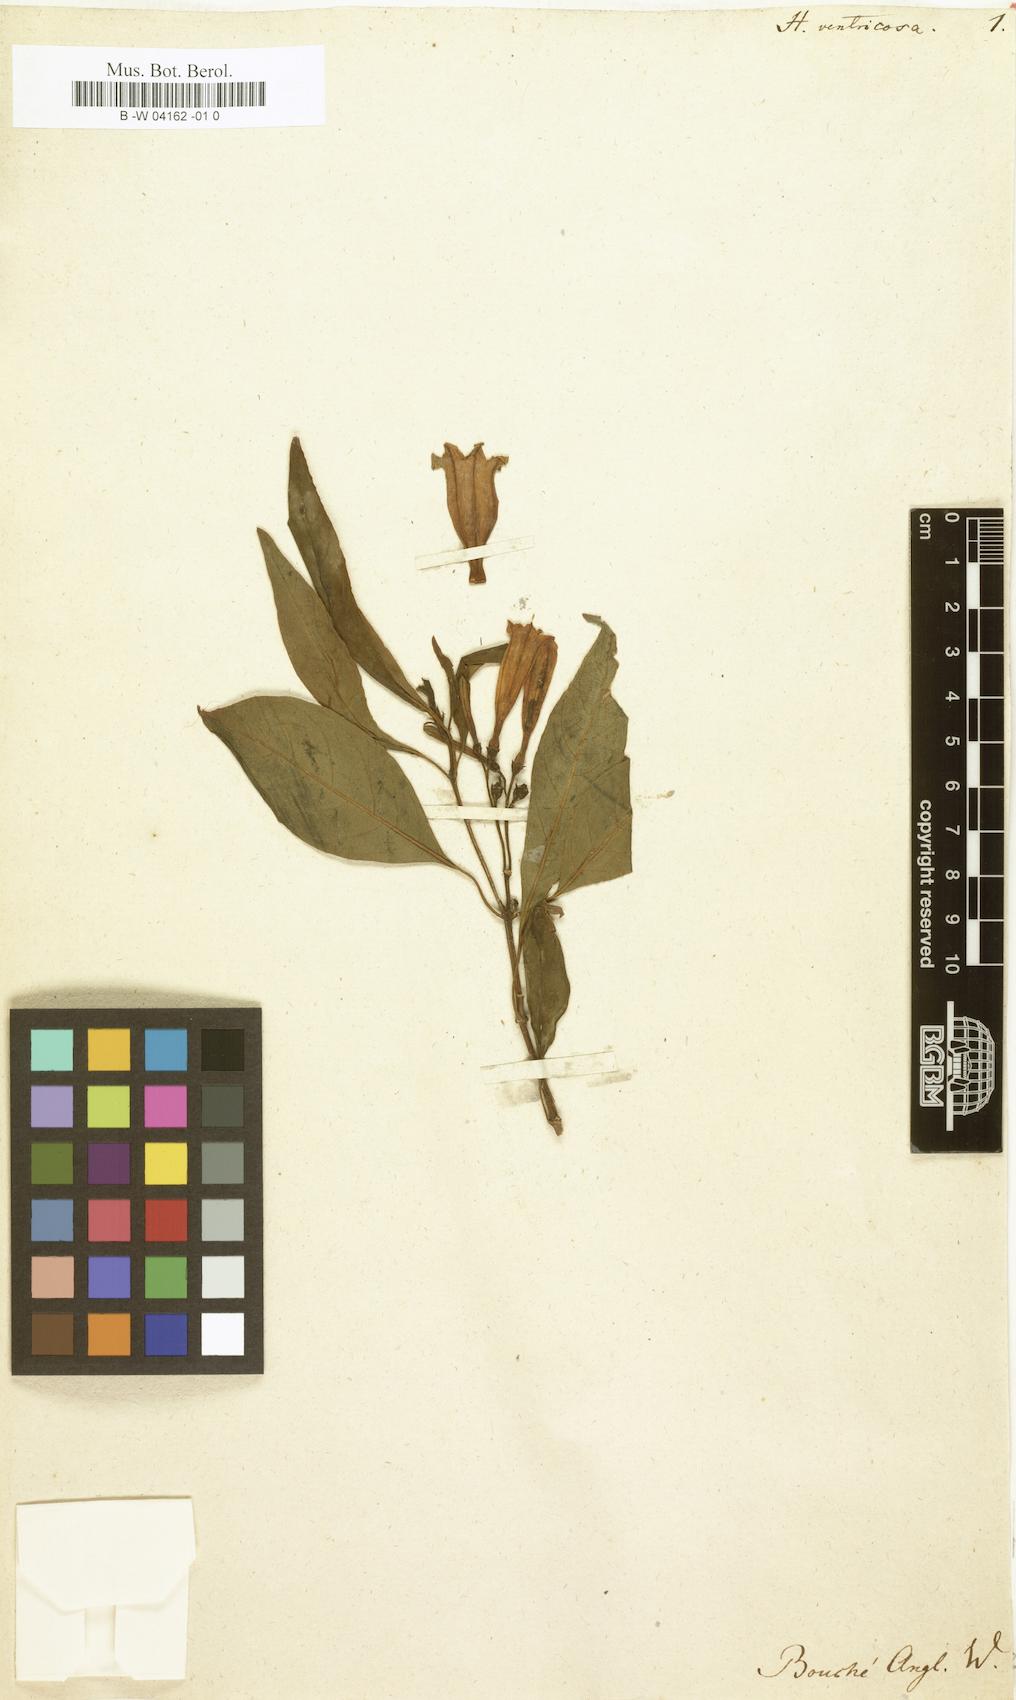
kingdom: Plantae
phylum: Tracheophyta
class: Magnoliopsida
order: Gentianales
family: Rubiaceae
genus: Hamelia
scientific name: Hamelia ventricosa
